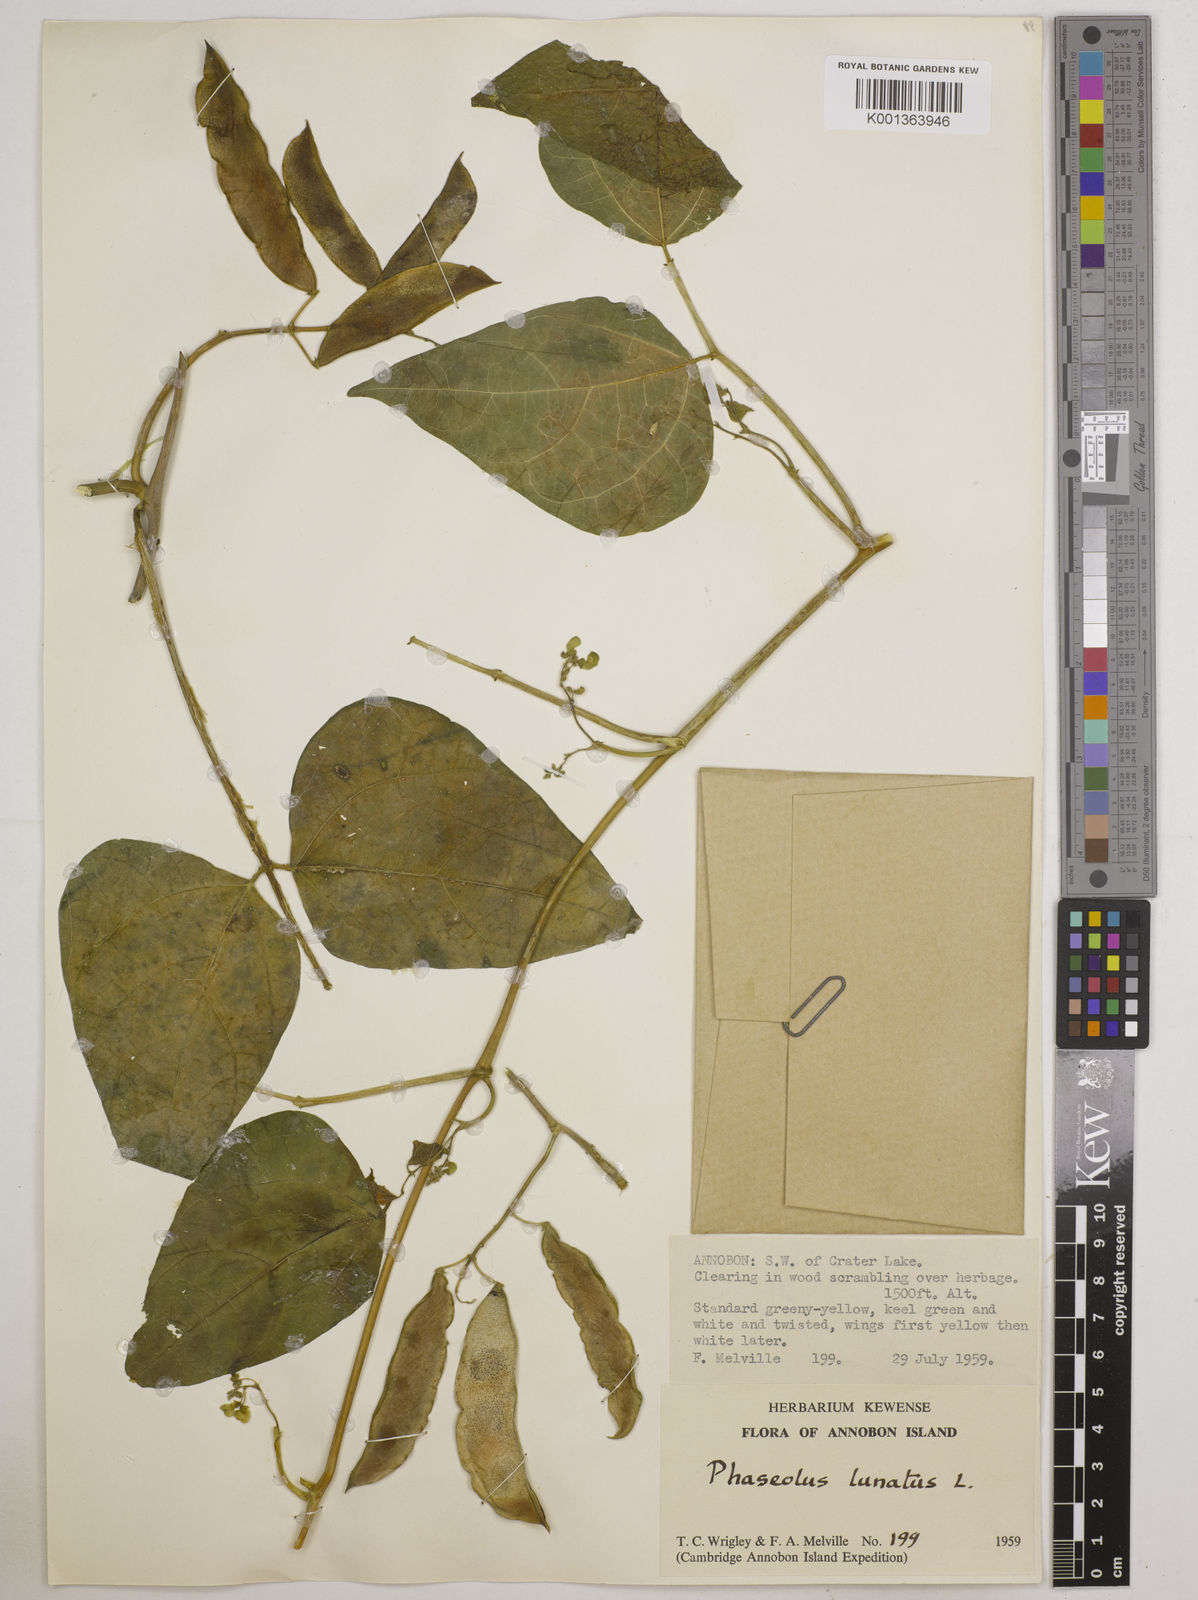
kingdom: Plantae
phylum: Tracheophyta
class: Magnoliopsida
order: Fabales
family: Fabaceae
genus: Phaseolus
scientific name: Phaseolus lunatus
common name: Sieva bean
